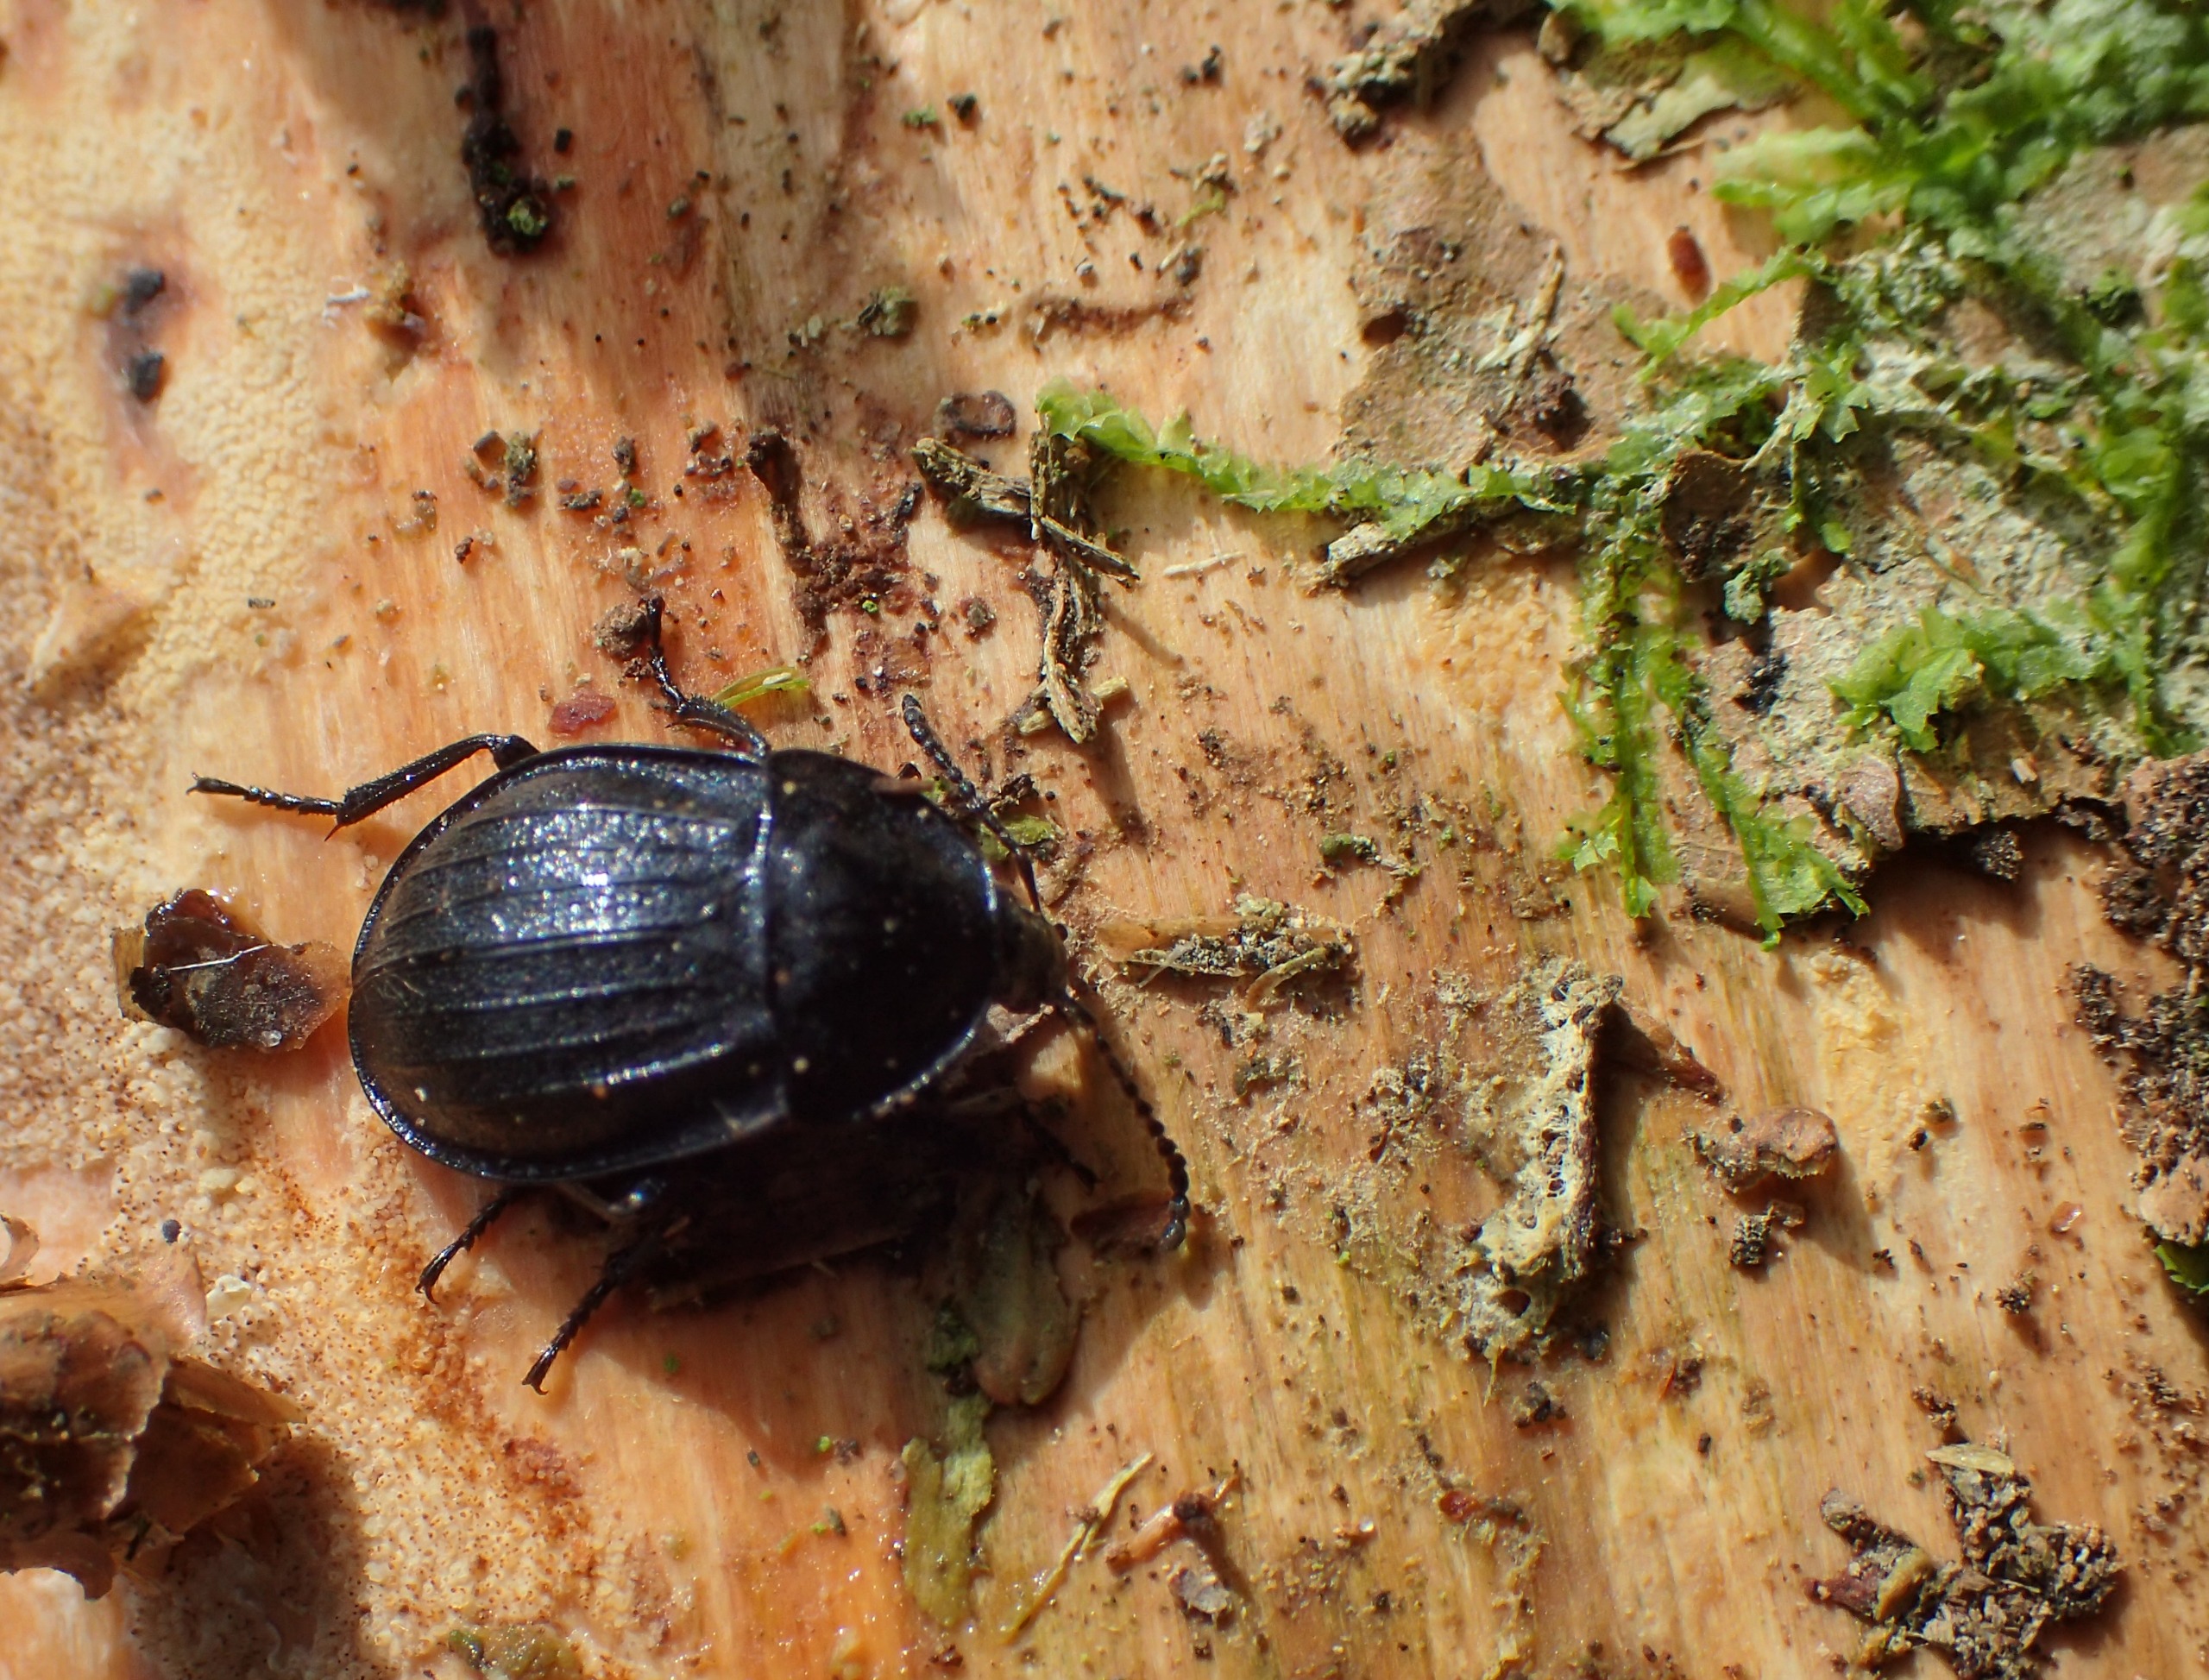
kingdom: Animalia
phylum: Arthropoda
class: Insecta
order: Coleoptera
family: Staphylinidae
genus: Silpha
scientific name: Silpha atrata
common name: Snegleådselbille
